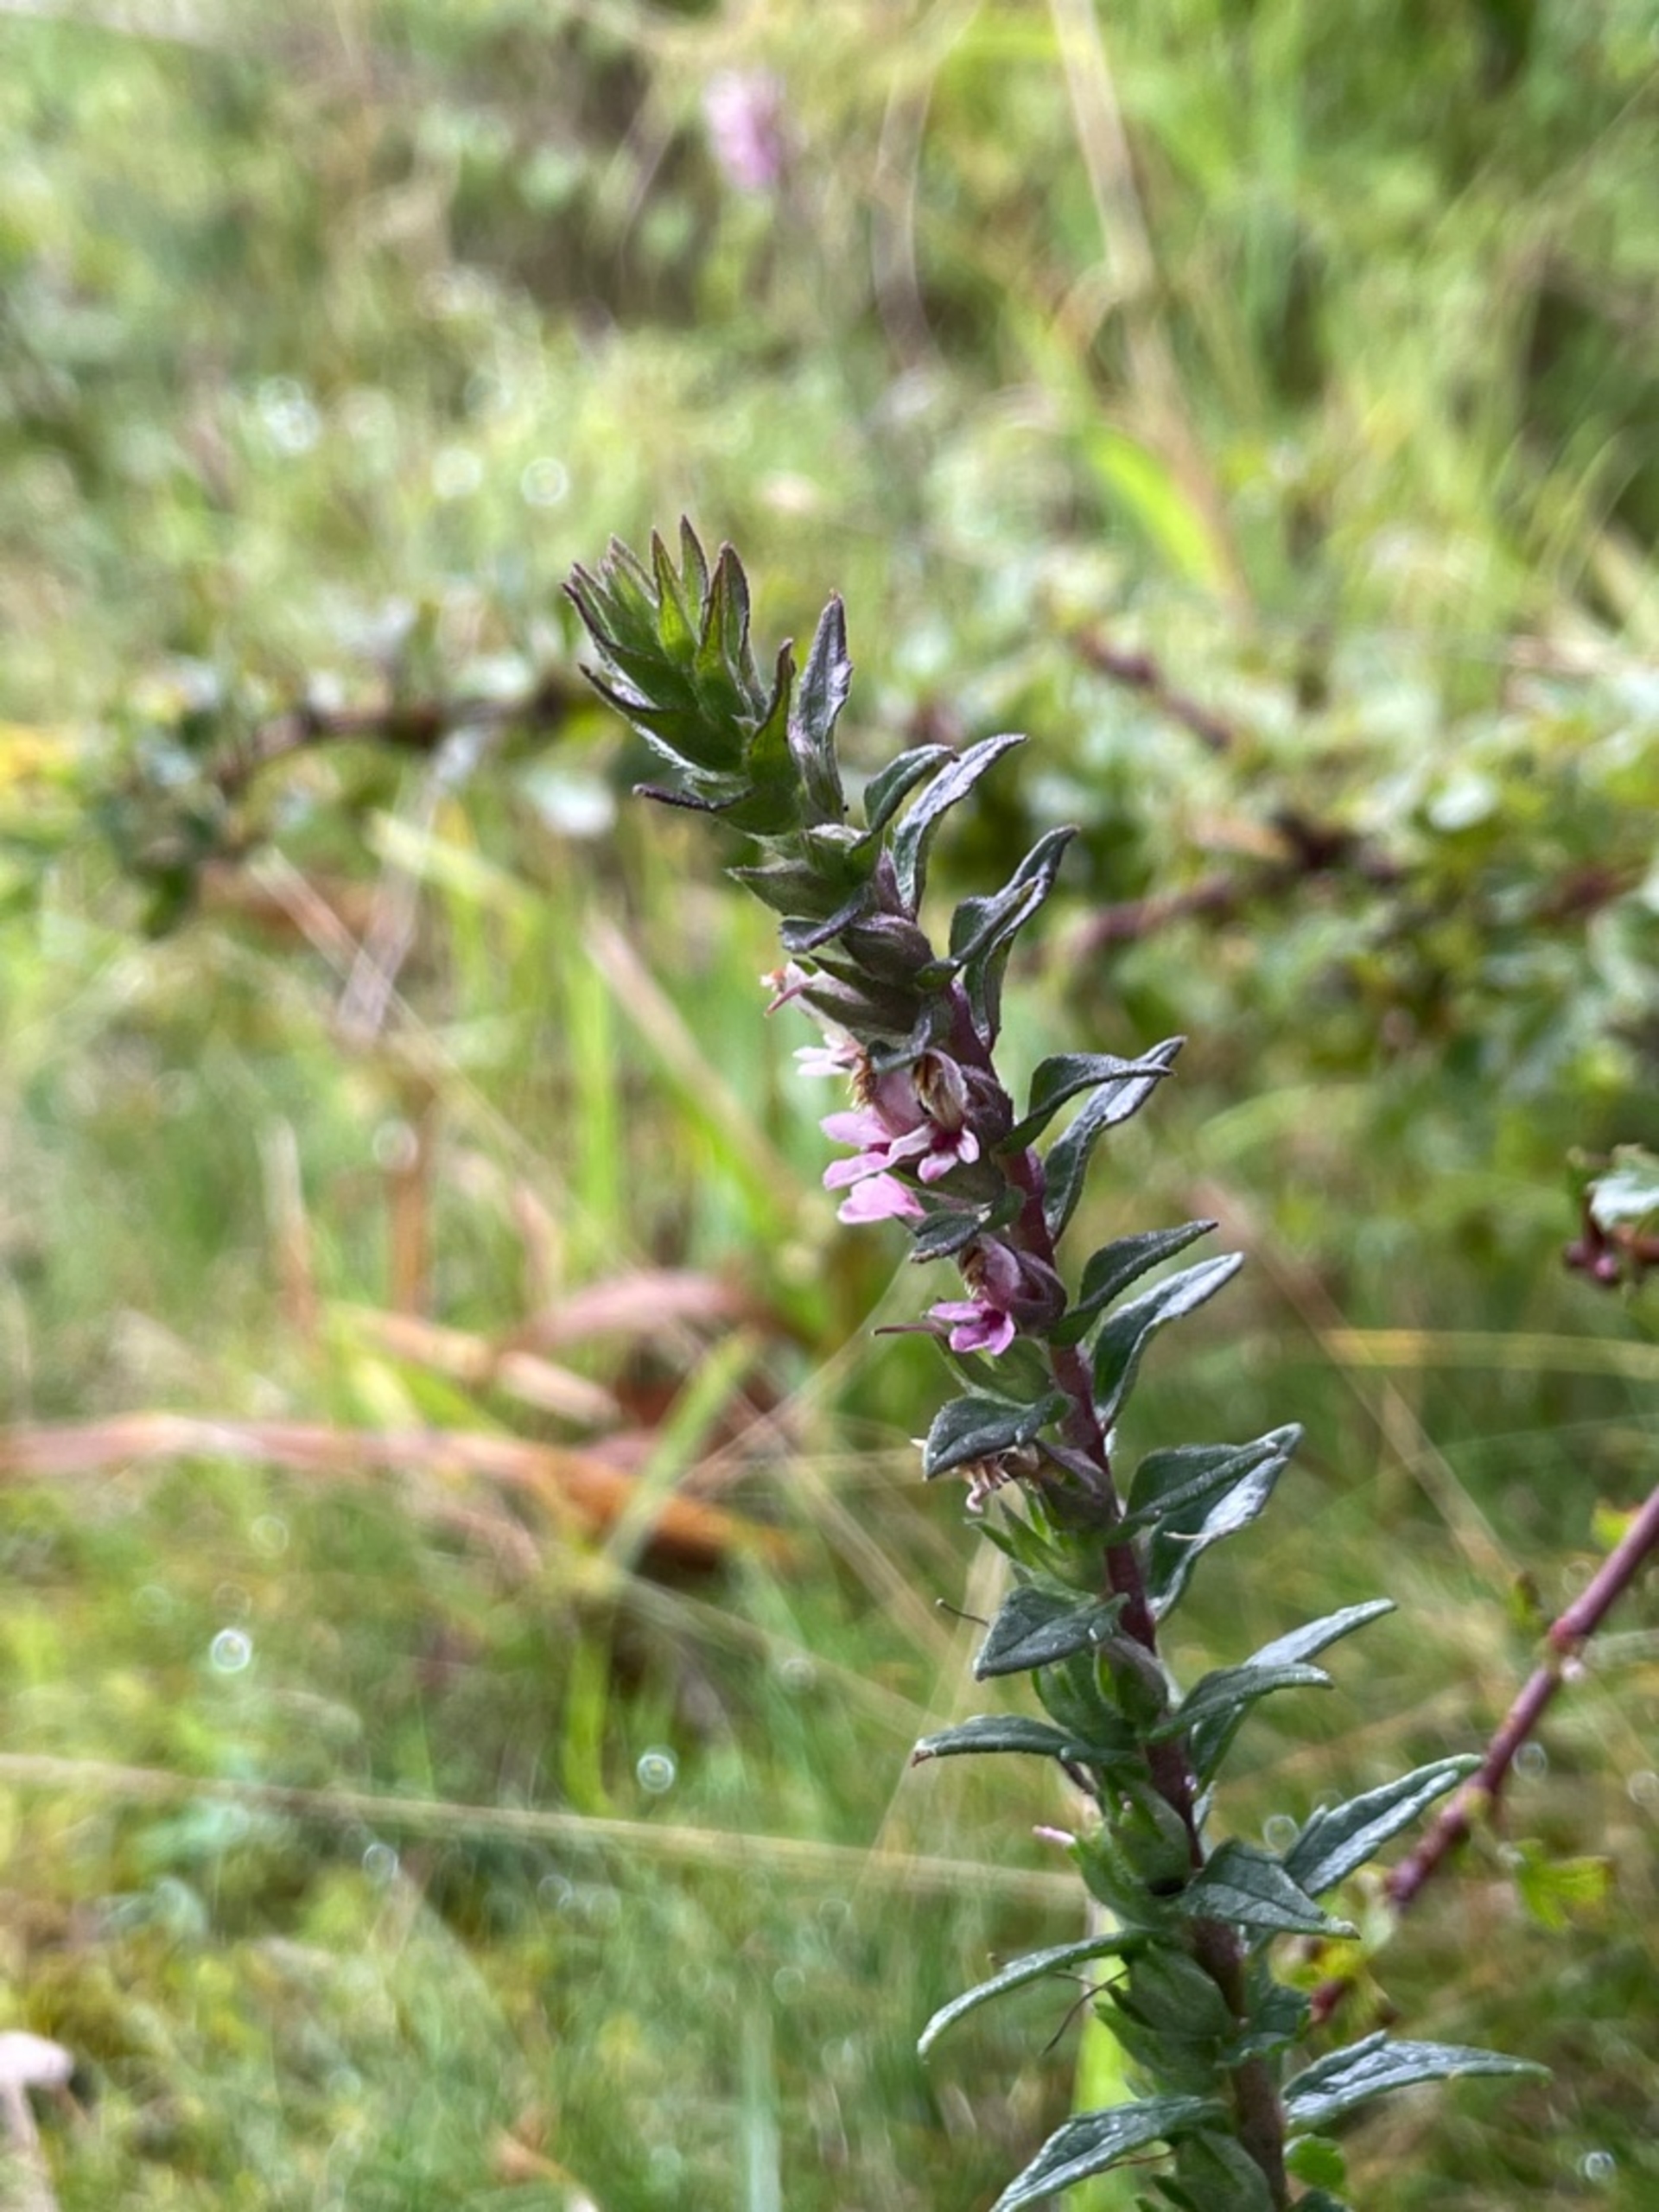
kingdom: Plantae
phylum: Tracheophyta
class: Magnoliopsida
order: Lamiales
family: Orobanchaceae
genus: Odontites
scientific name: Odontites vulgaris
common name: Høst-rødtop
